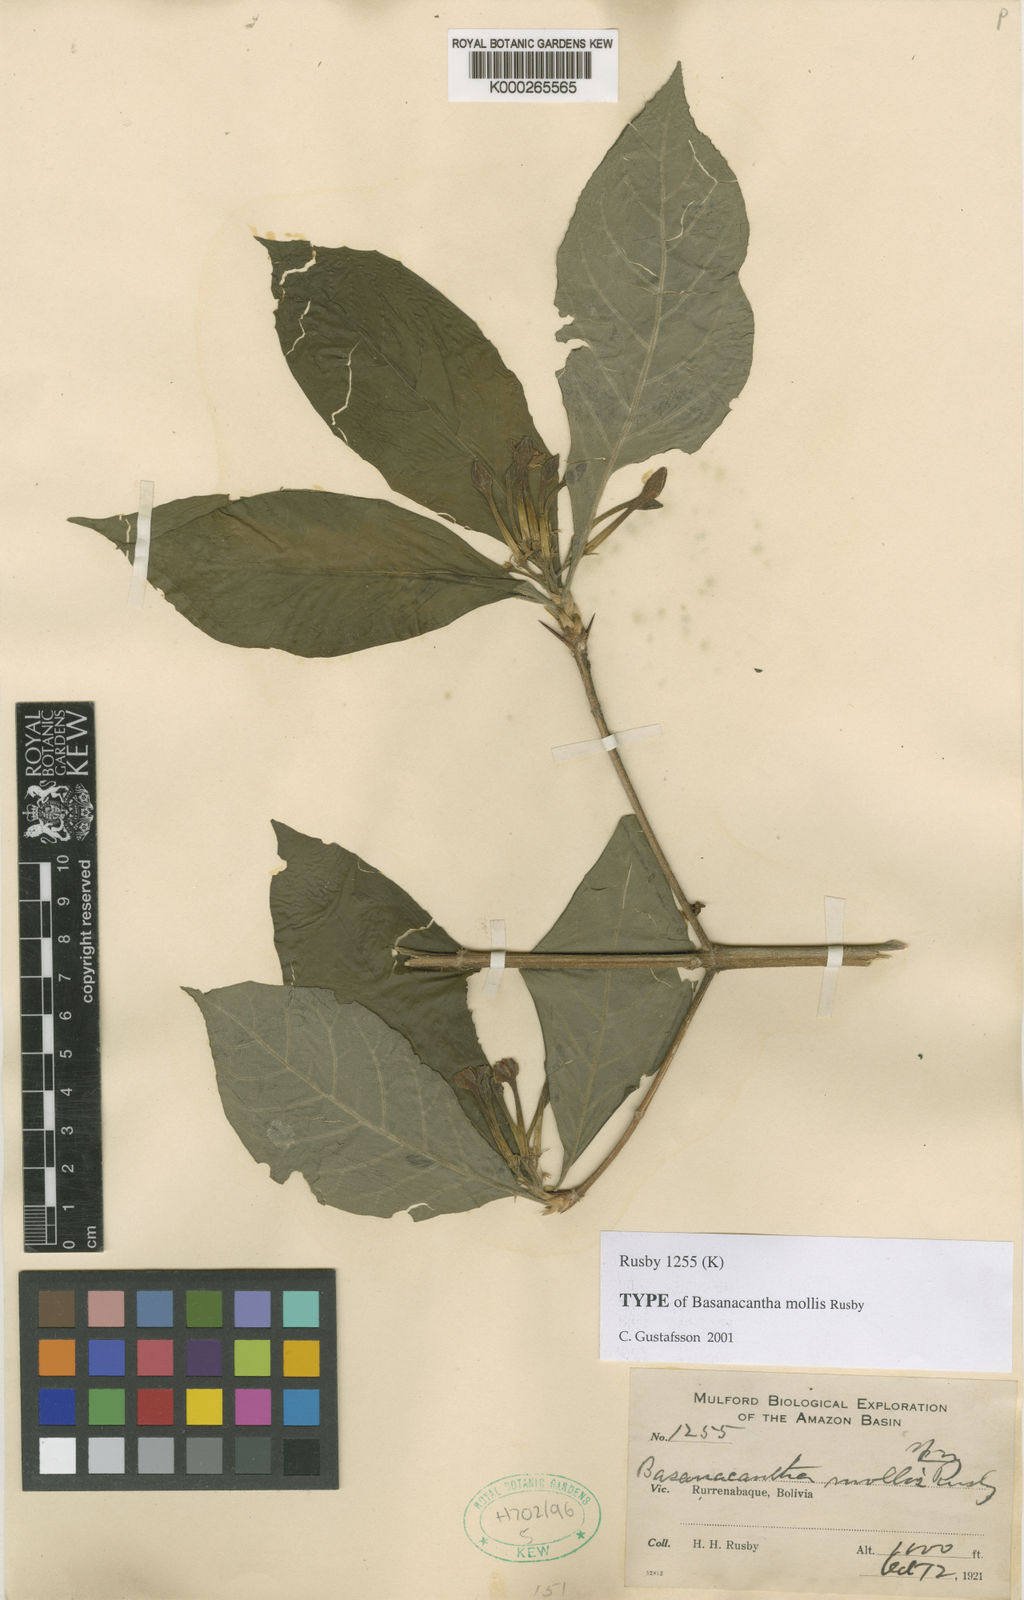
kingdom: Plantae
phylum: Tracheophyta
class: Magnoliopsida
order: Gentianales
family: Rubiaceae
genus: Randia
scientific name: Randia Basanacantha mollis
